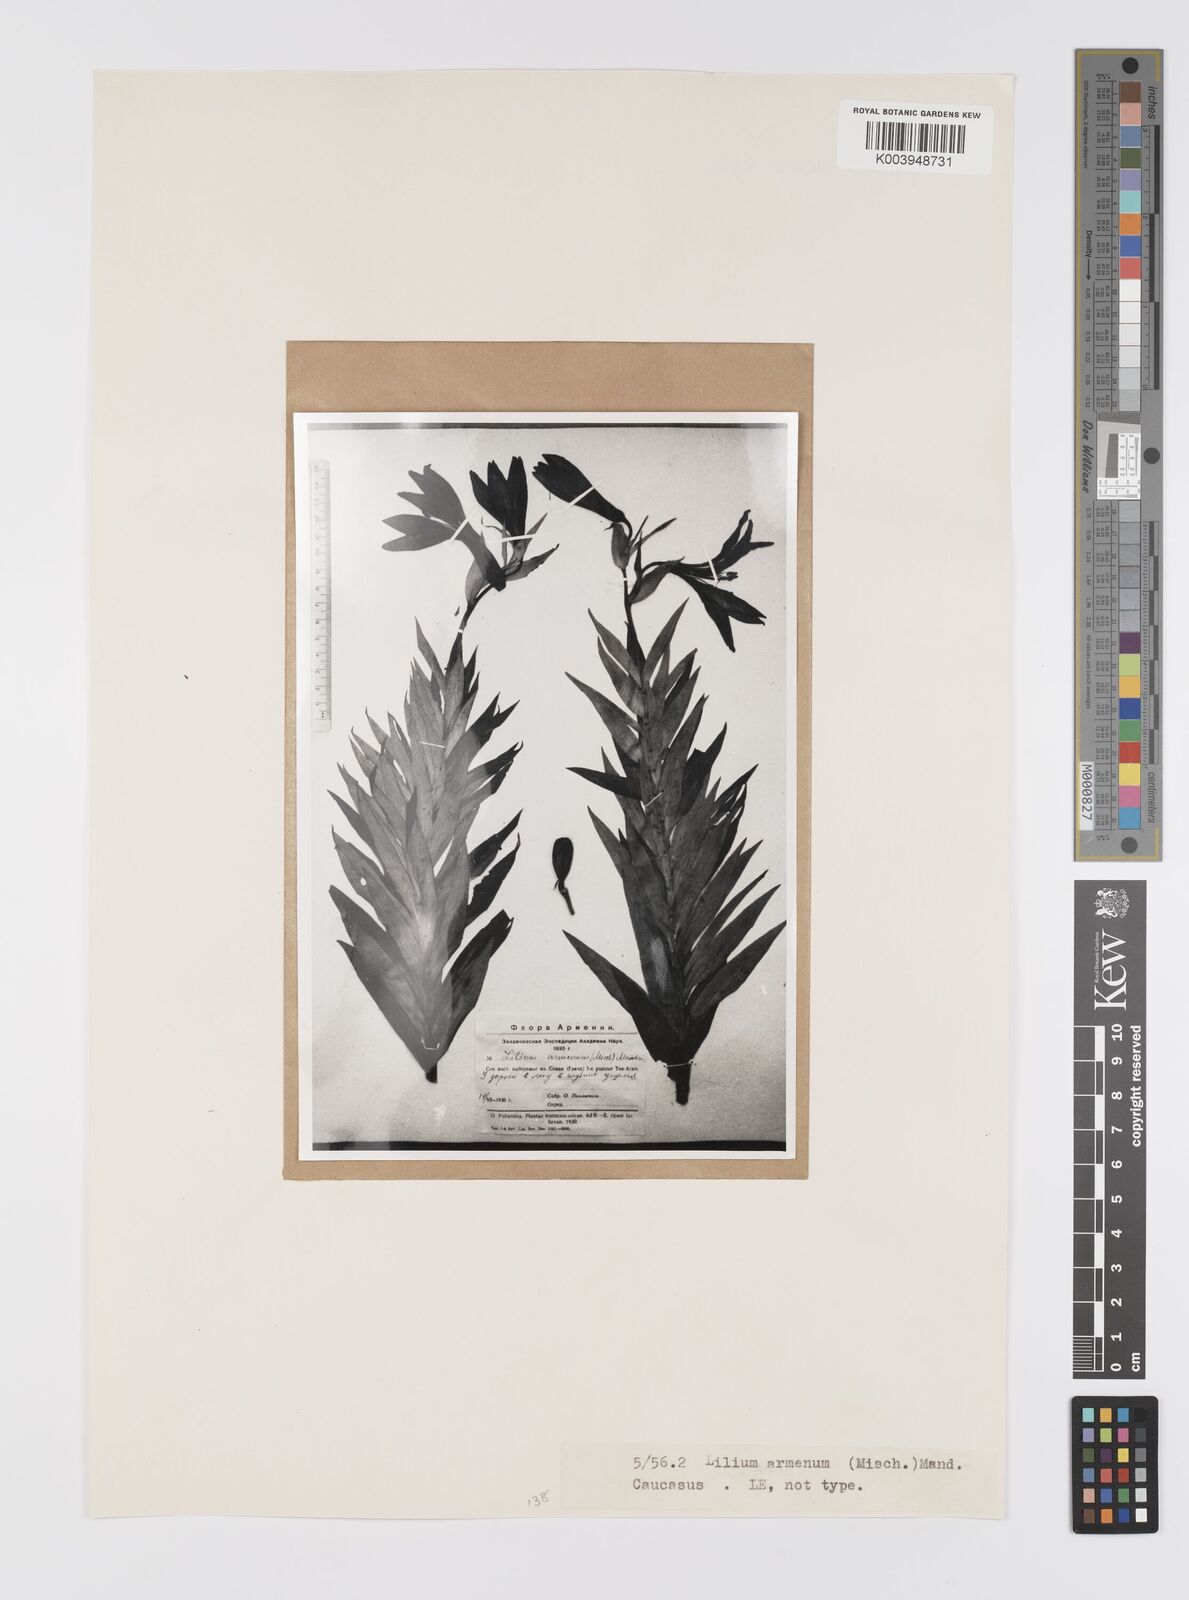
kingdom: Plantae
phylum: Tracheophyta
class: Liliopsida
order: Liliales
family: Liliaceae
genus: Lilium
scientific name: Lilium szovitsianum
